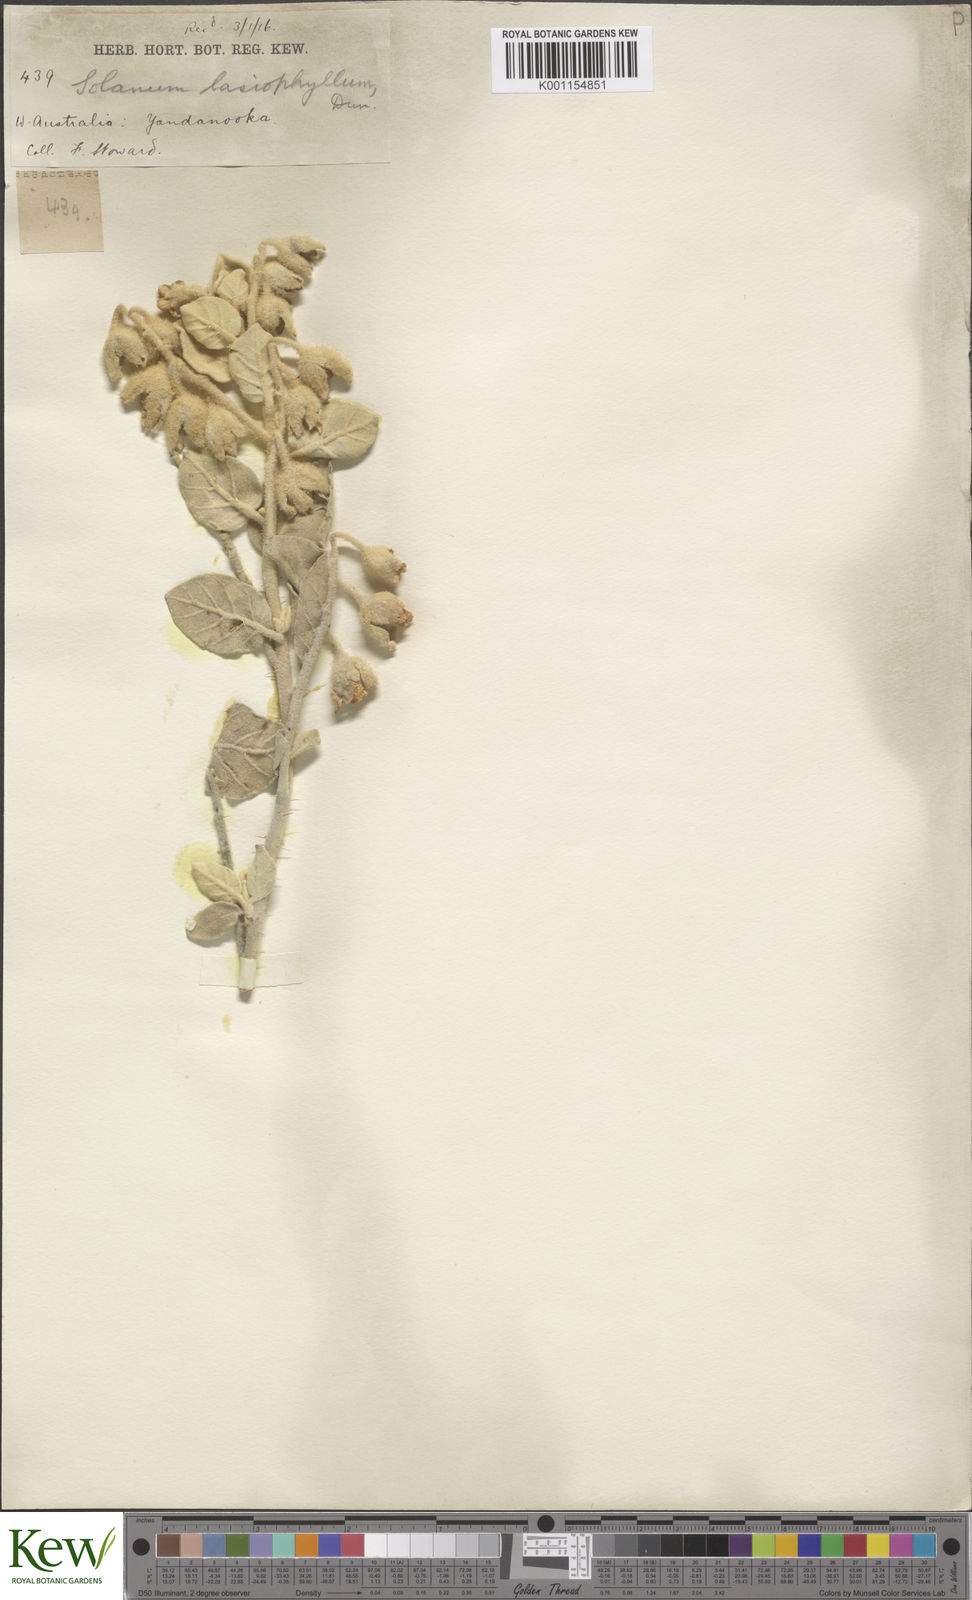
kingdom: Plantae
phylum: Tracheophyta
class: Magnoliopsida
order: Solanales
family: Solanaceae
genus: Solanum
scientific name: Solanum lasiophyllum
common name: Flannelbush
